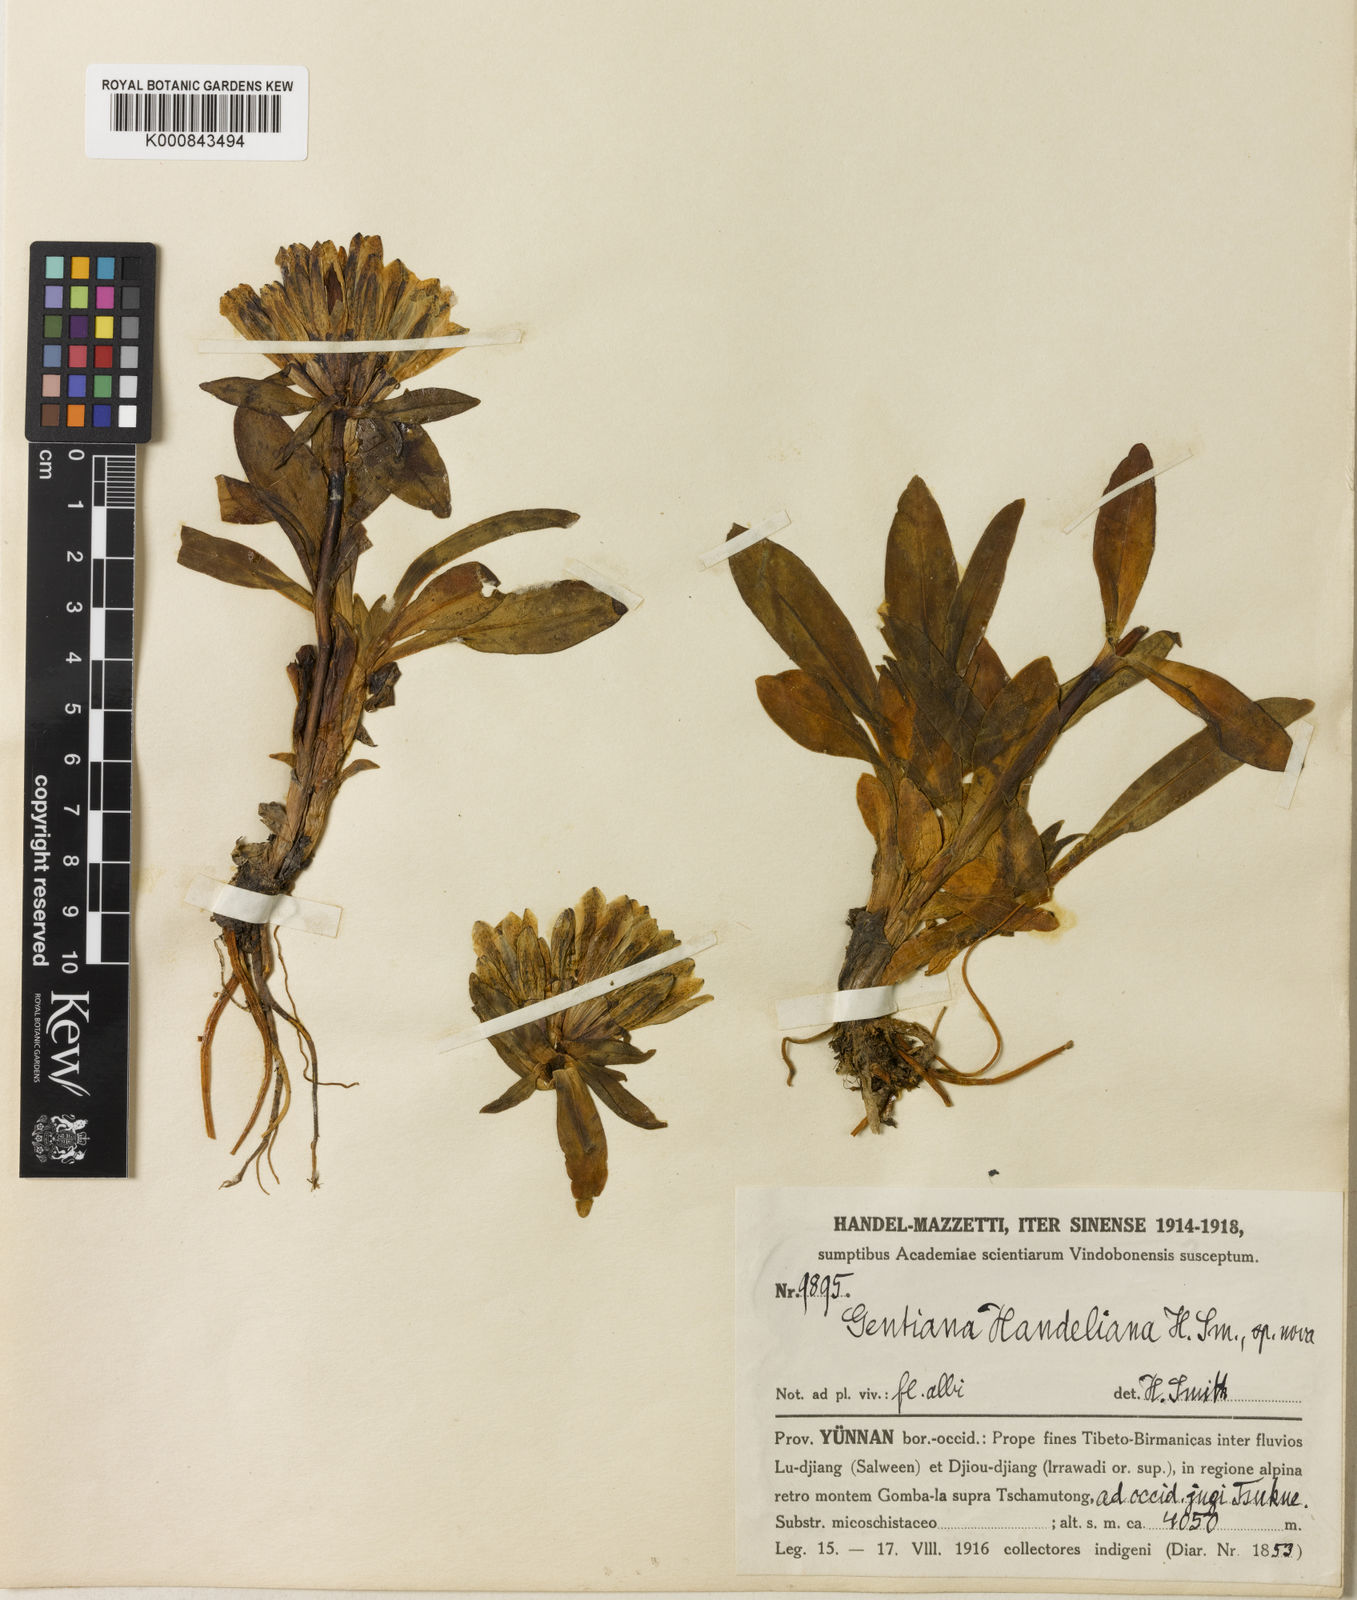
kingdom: Plantae
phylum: Tracheophyta
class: Magnoliopsida
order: Gentianales
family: Gentianaceae
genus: Gentiana
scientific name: Gentiana
